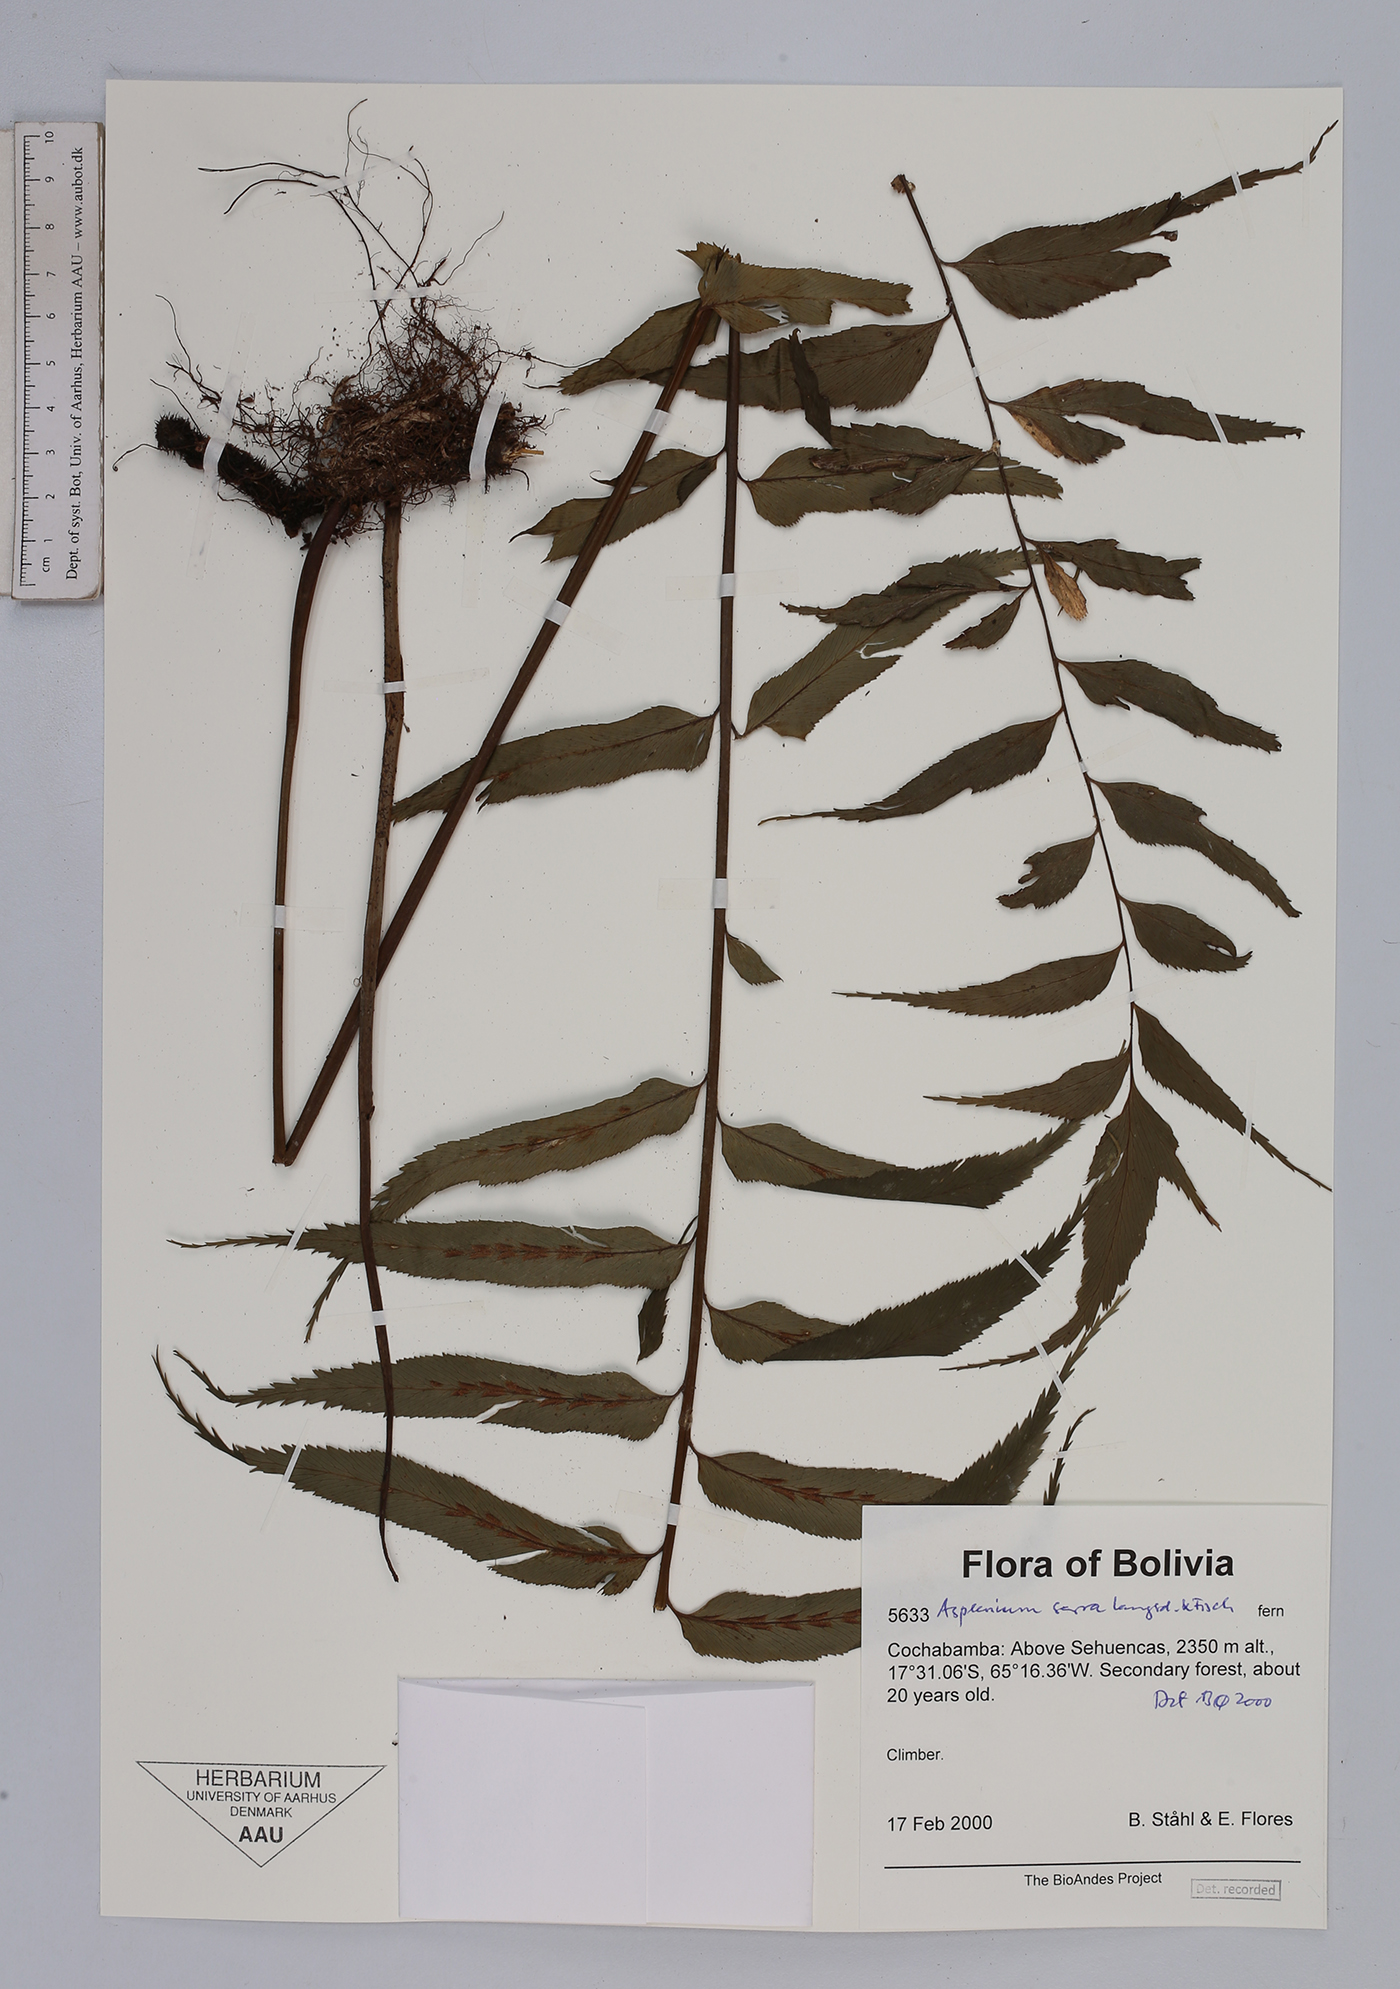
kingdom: Plantae
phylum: Tracheophyta
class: Polypodiopsida
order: Polypodiales
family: Aspleniaceae
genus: Asplenium
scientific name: Asplenium serra
